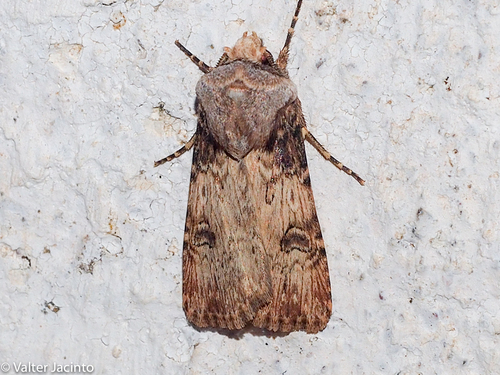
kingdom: Animalia
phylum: Arthropoda
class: Insecta
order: Lepidoptera
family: Noctuidae
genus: Agrotis
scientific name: Agrotis herzogi
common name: Spalding's dart
